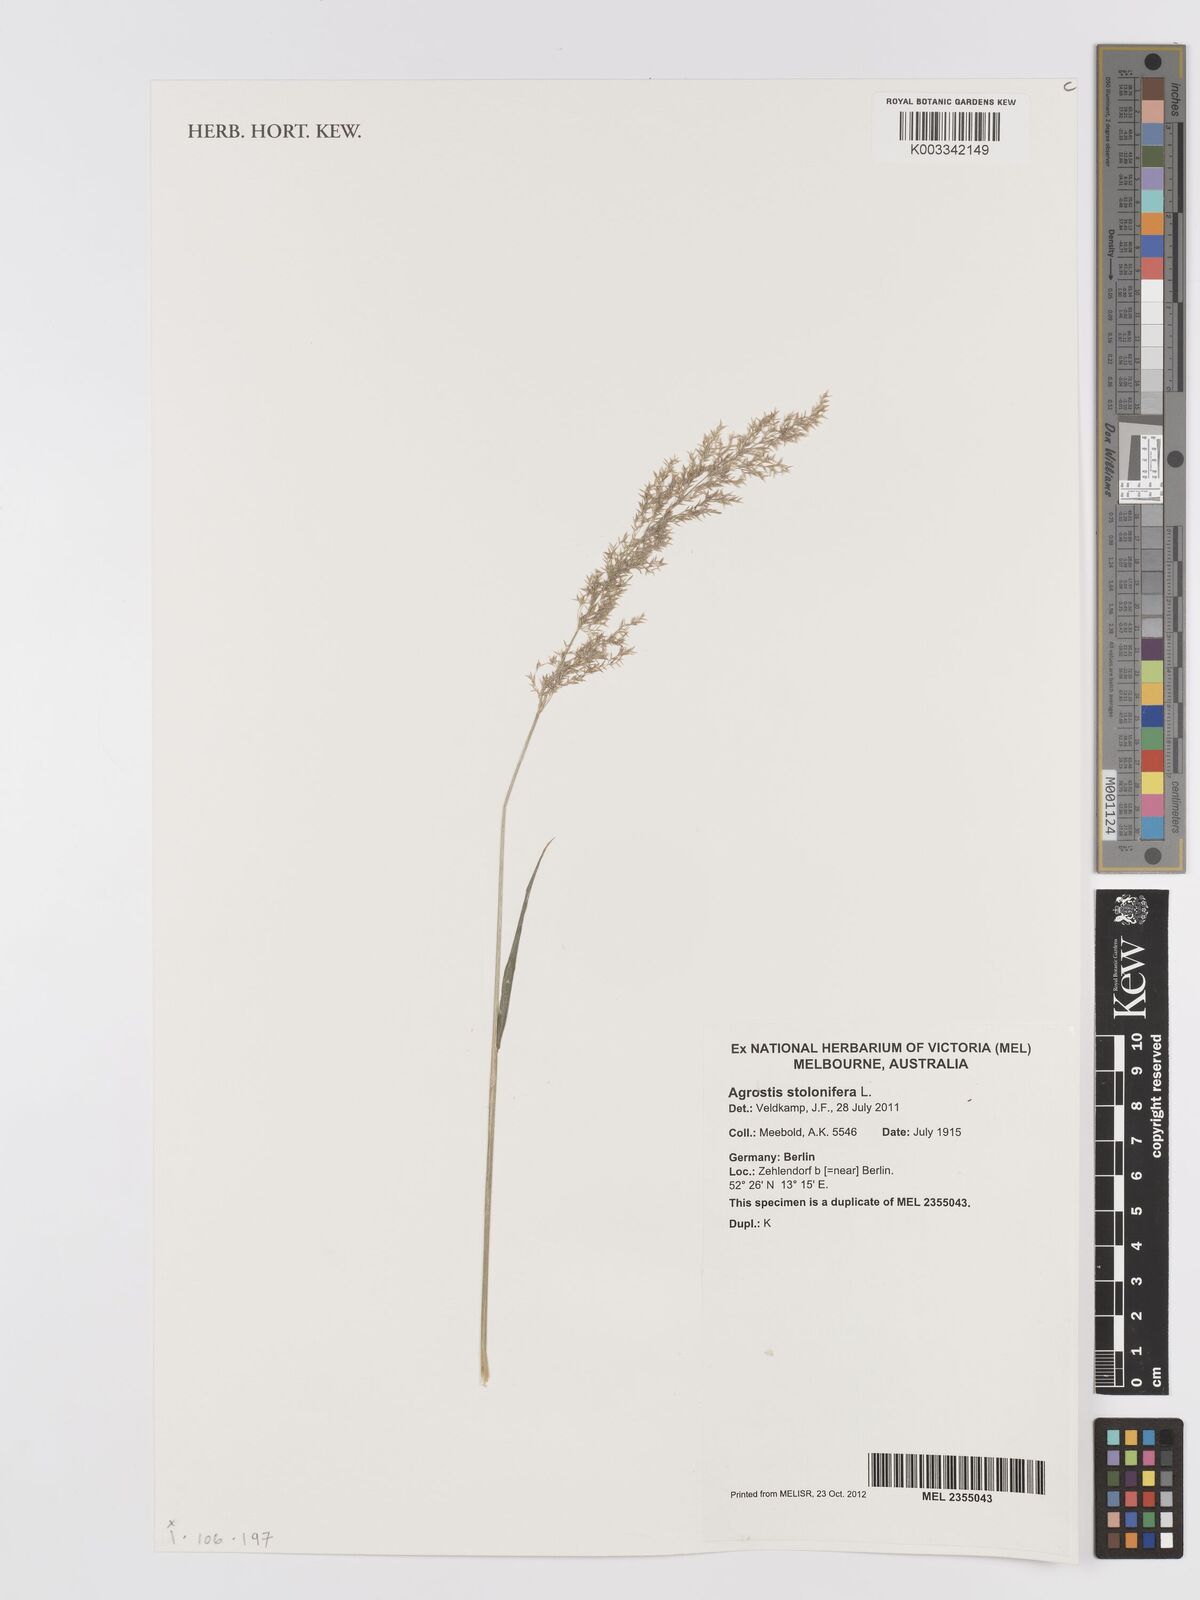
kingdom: Plantae
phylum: Tracheophyta
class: Liliopsida
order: Poales
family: Poaceae
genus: Agrostis
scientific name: Agrostis stolonifera
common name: Creeping bentgrass
